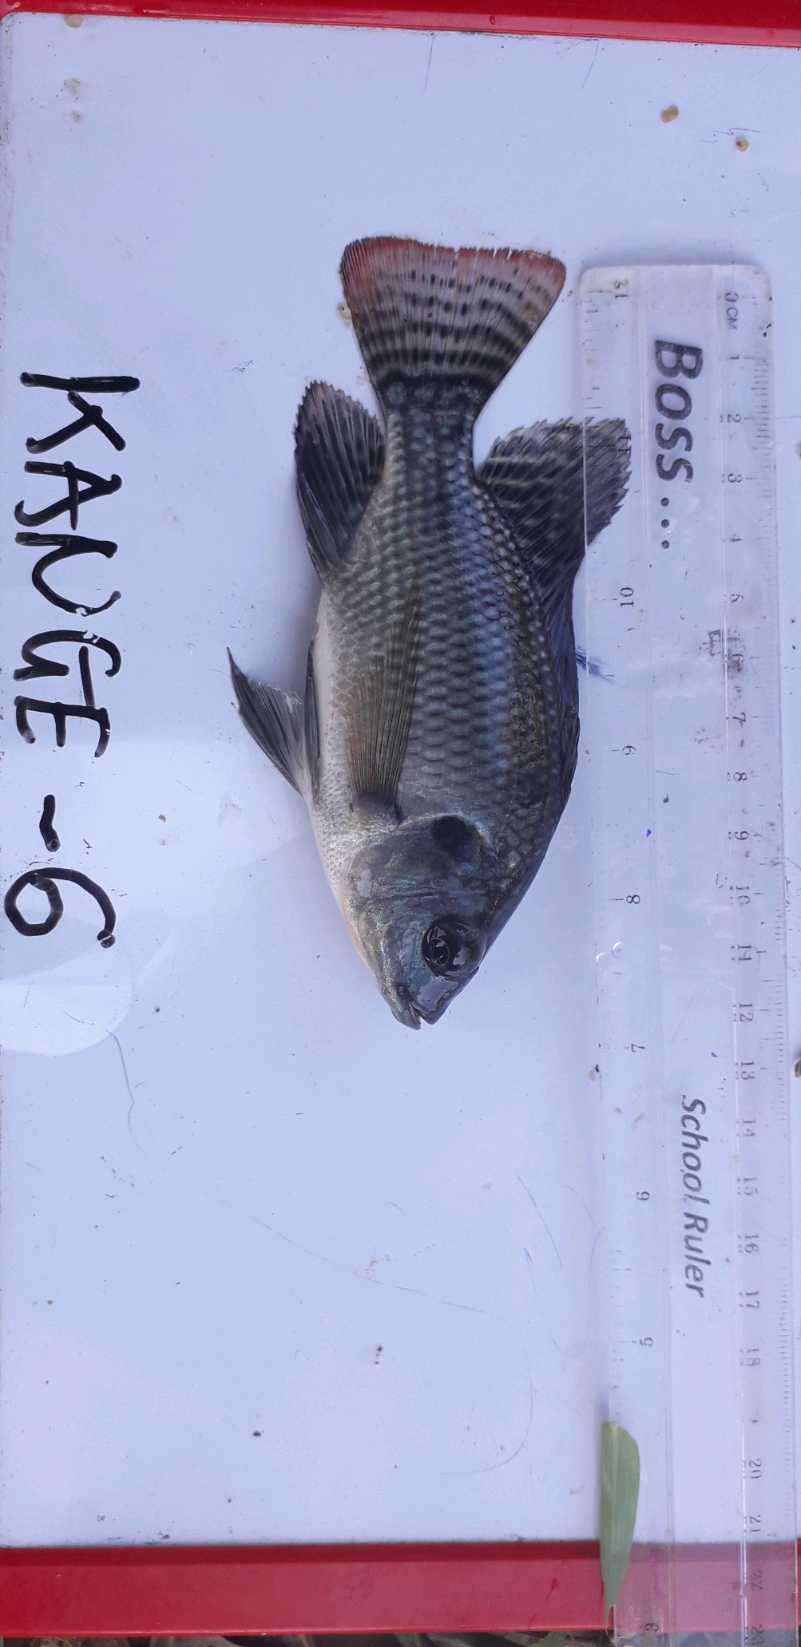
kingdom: Animalia
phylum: Chordata
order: Perciformes
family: Cichlidae
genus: Oreochromis
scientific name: Oreochromis niloticus
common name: Nile tilapia
